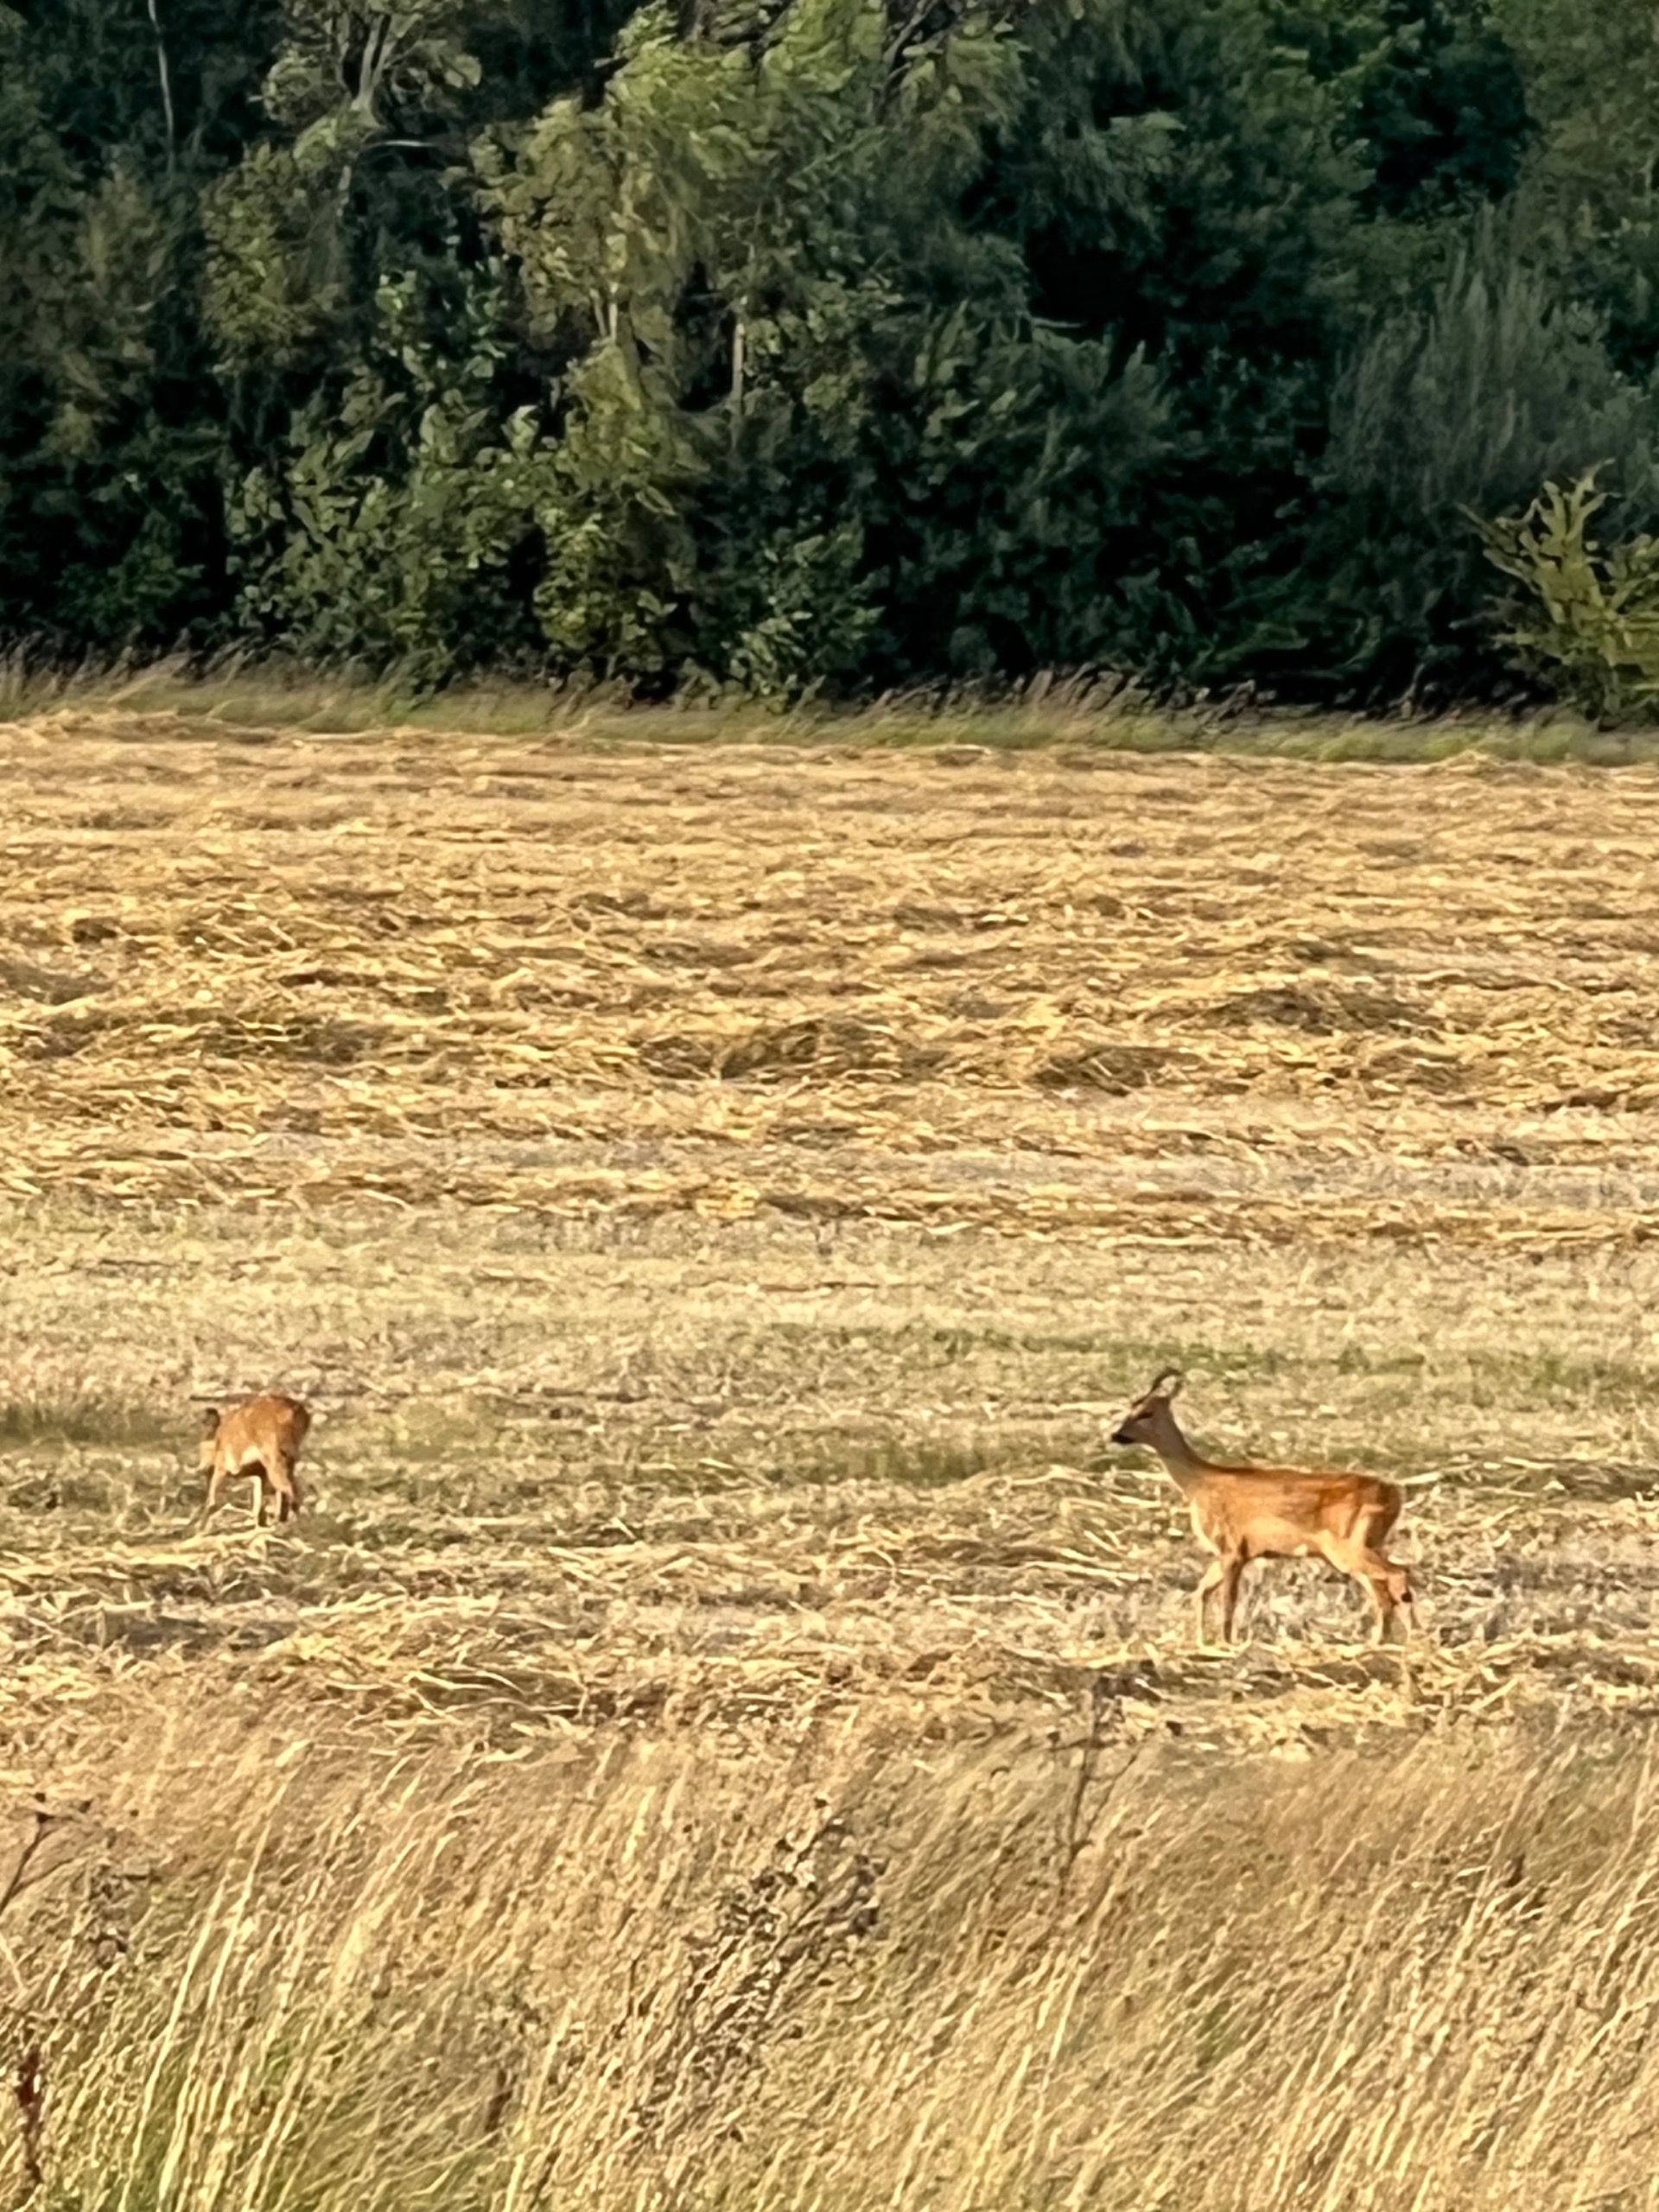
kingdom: Animalia
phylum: Chordata
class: Mammalia
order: Artiodactyla
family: Cervidae
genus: Capreolus
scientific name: Capreolus capreolus
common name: Rådyr
